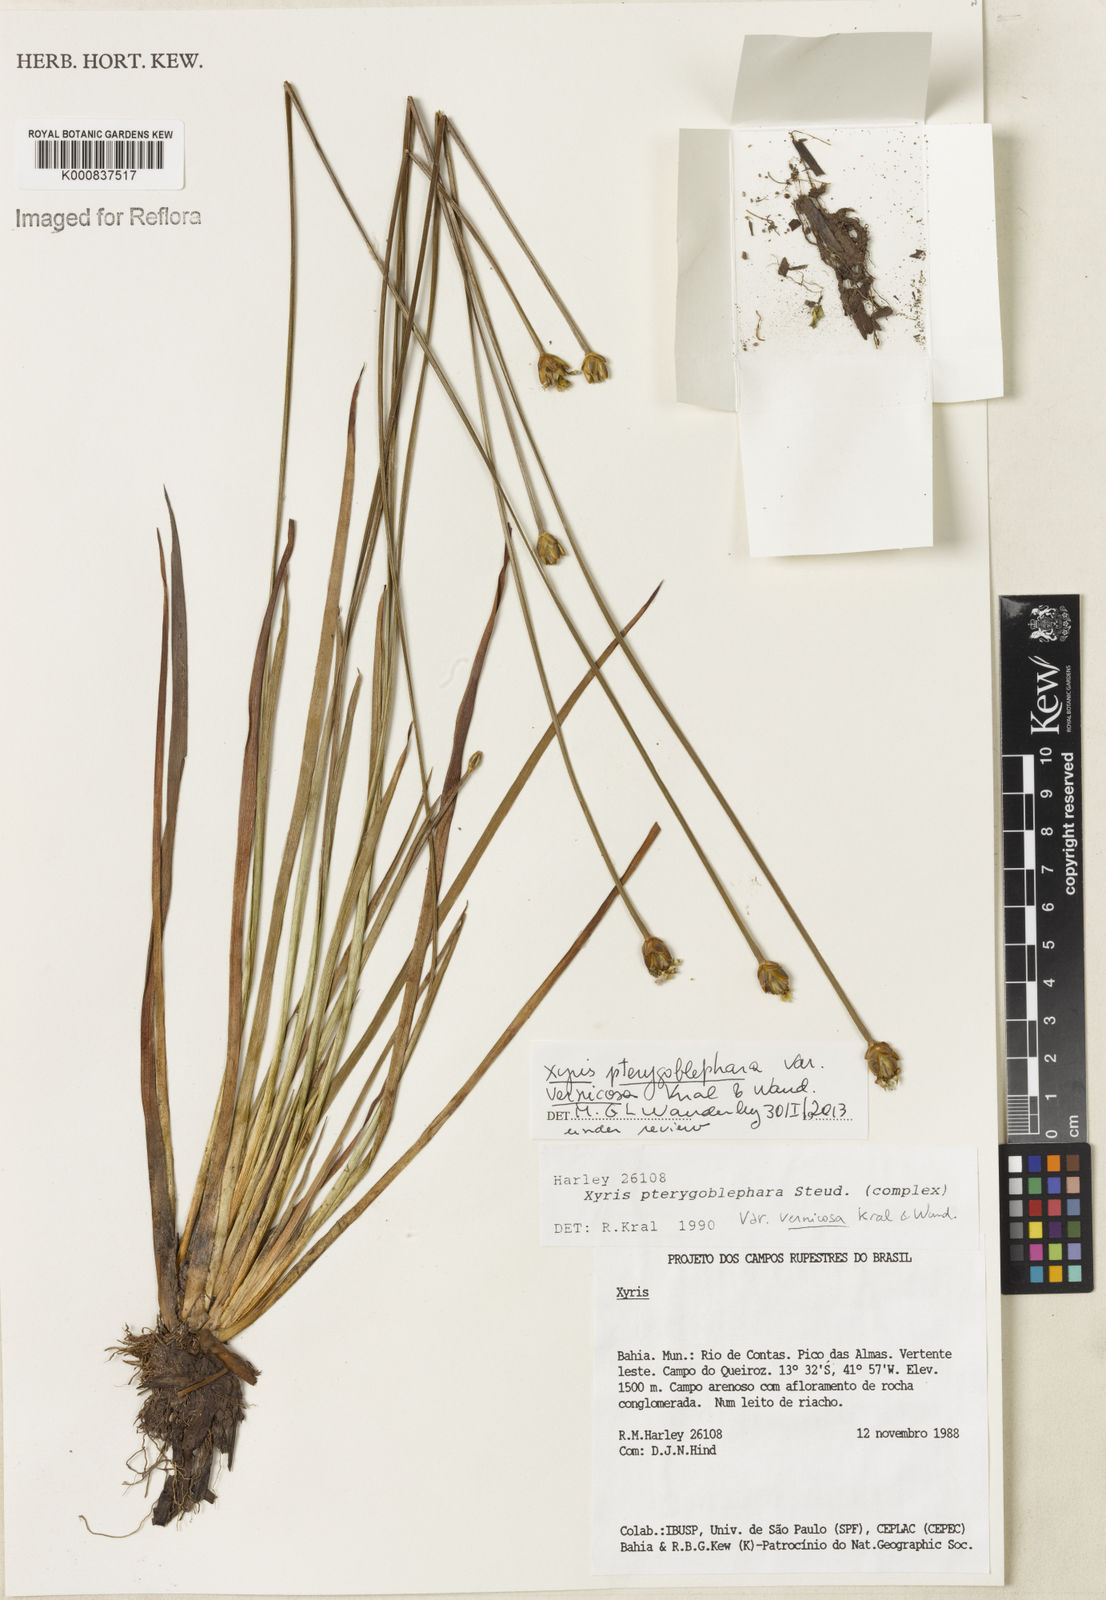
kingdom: Plantae
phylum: Tracheophyta
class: Liliopsida
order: Poales
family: Xyridaceae
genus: Xyris
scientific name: Xyris pterygoblephara
